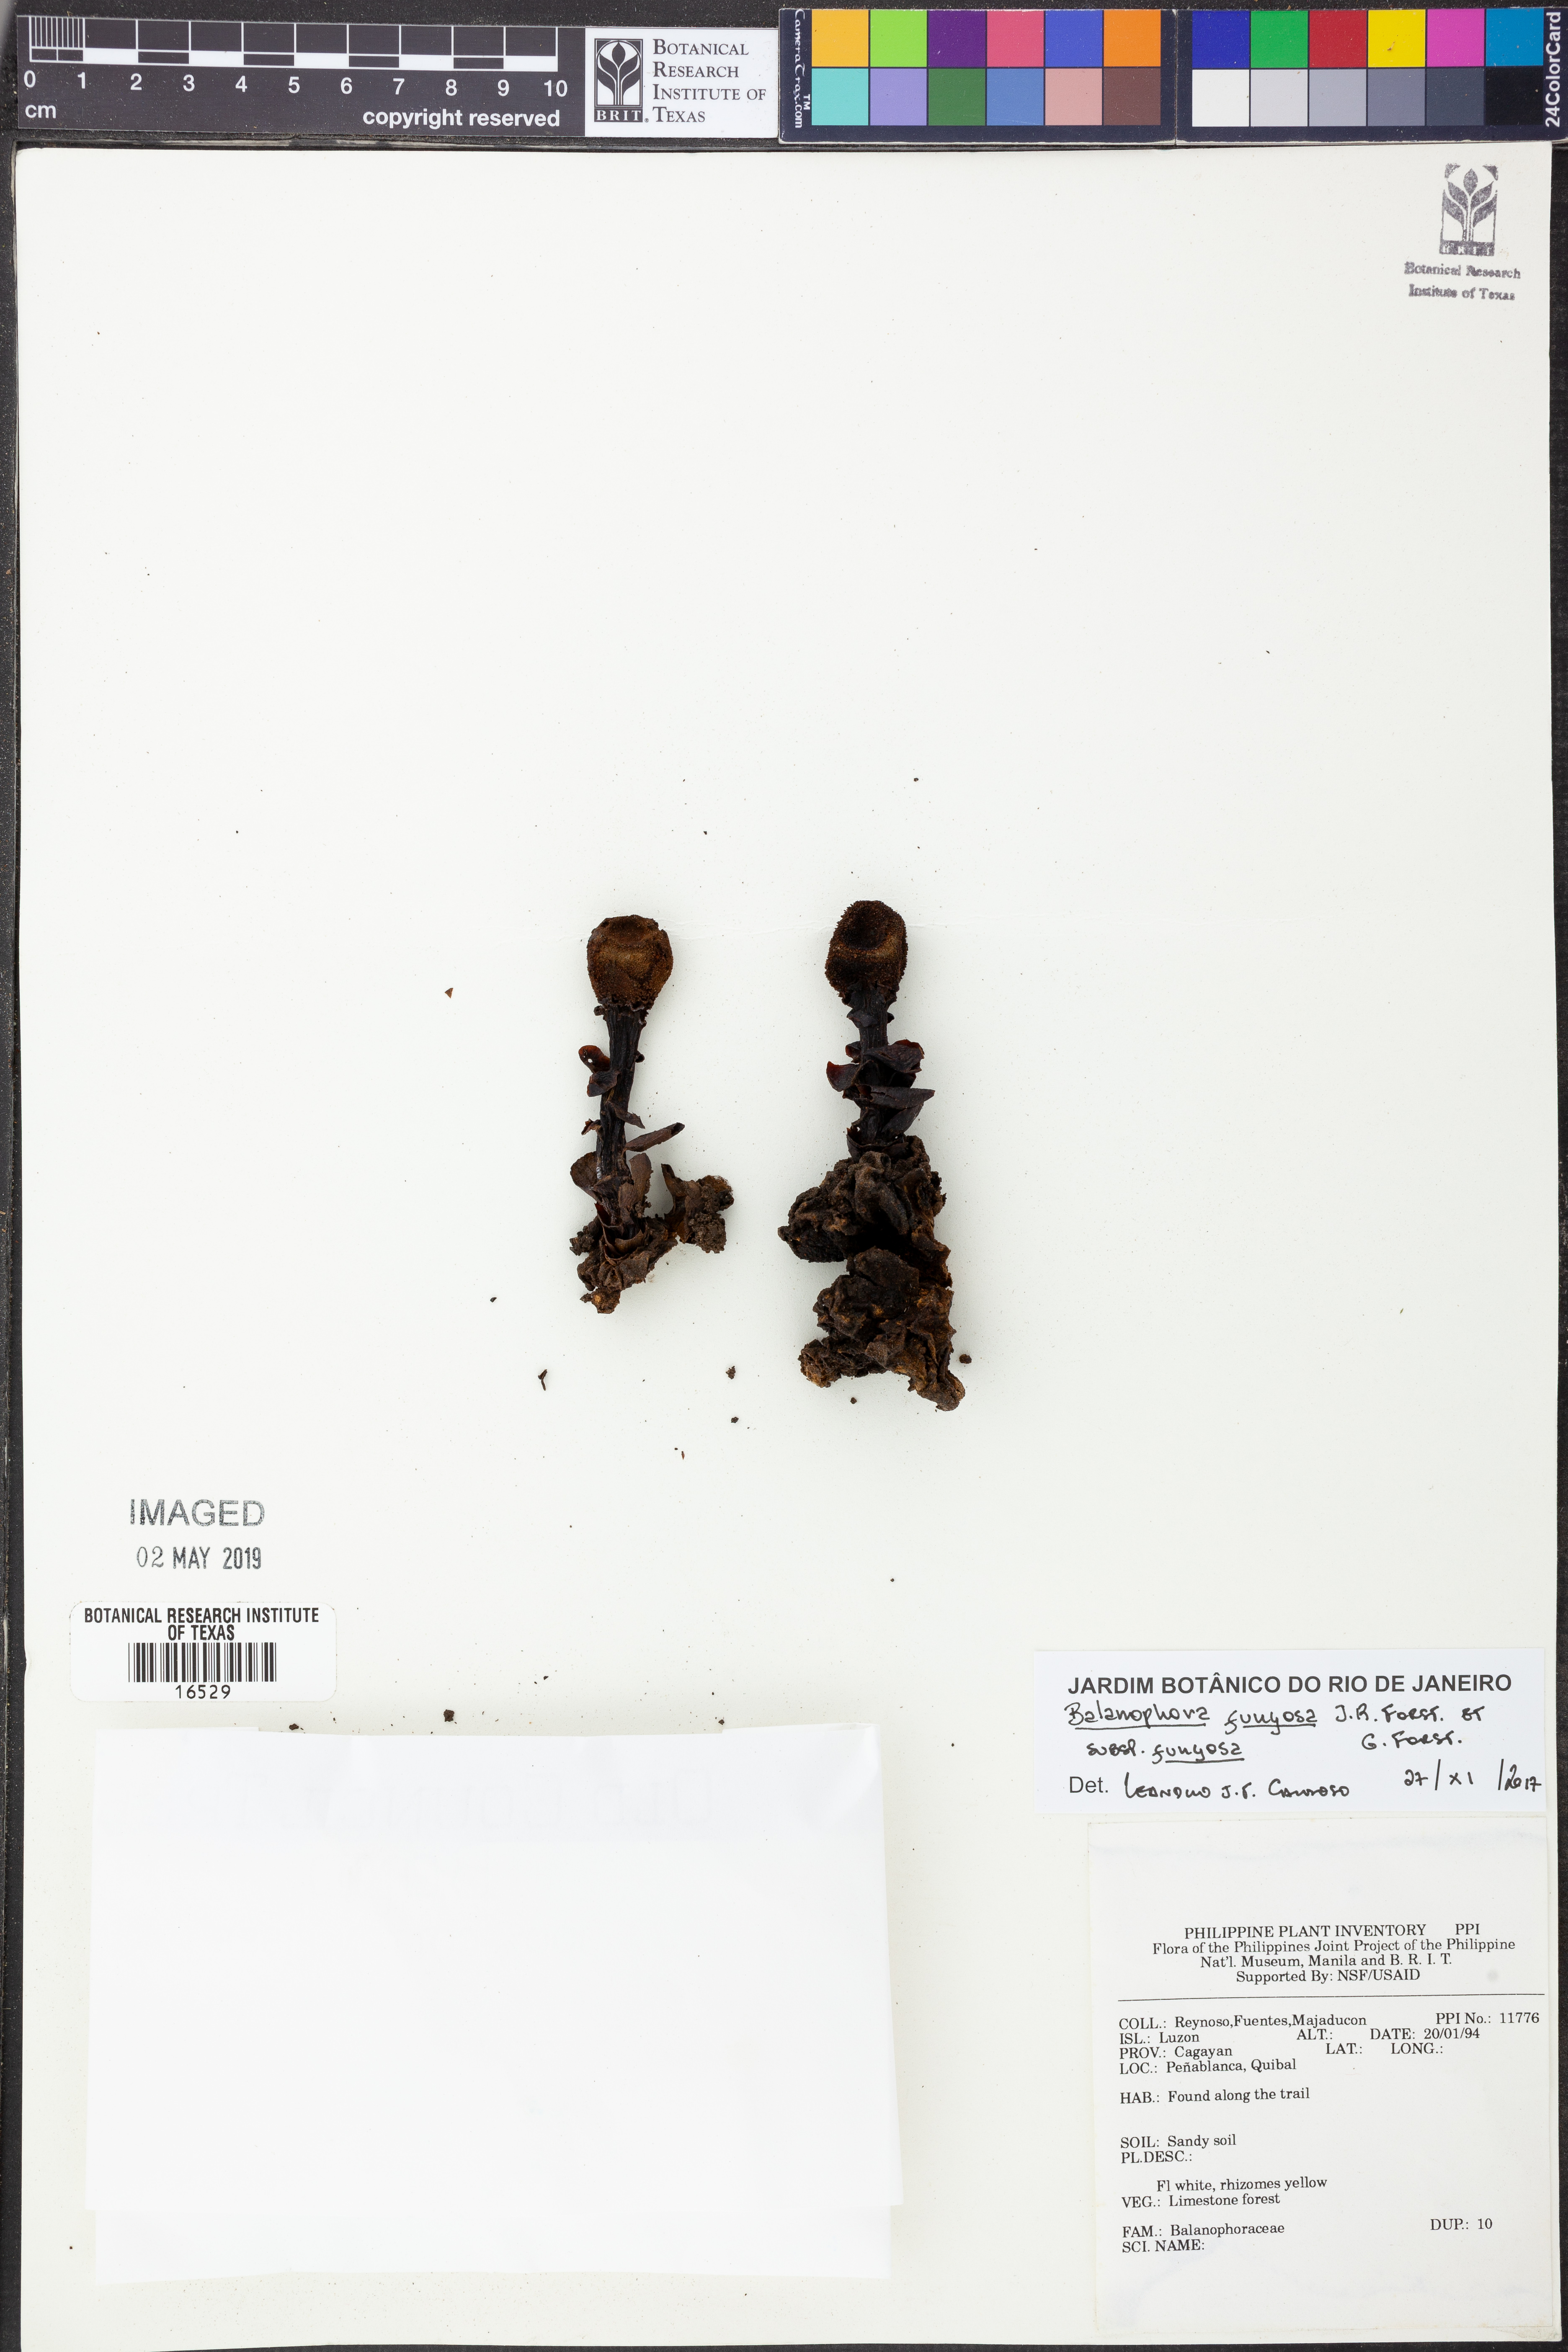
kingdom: Plantae
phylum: Tracheophyta
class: Magnoliopsida
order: Santalales
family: Balanophoraceae
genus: Balanophora
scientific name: Balanophora fungosa
